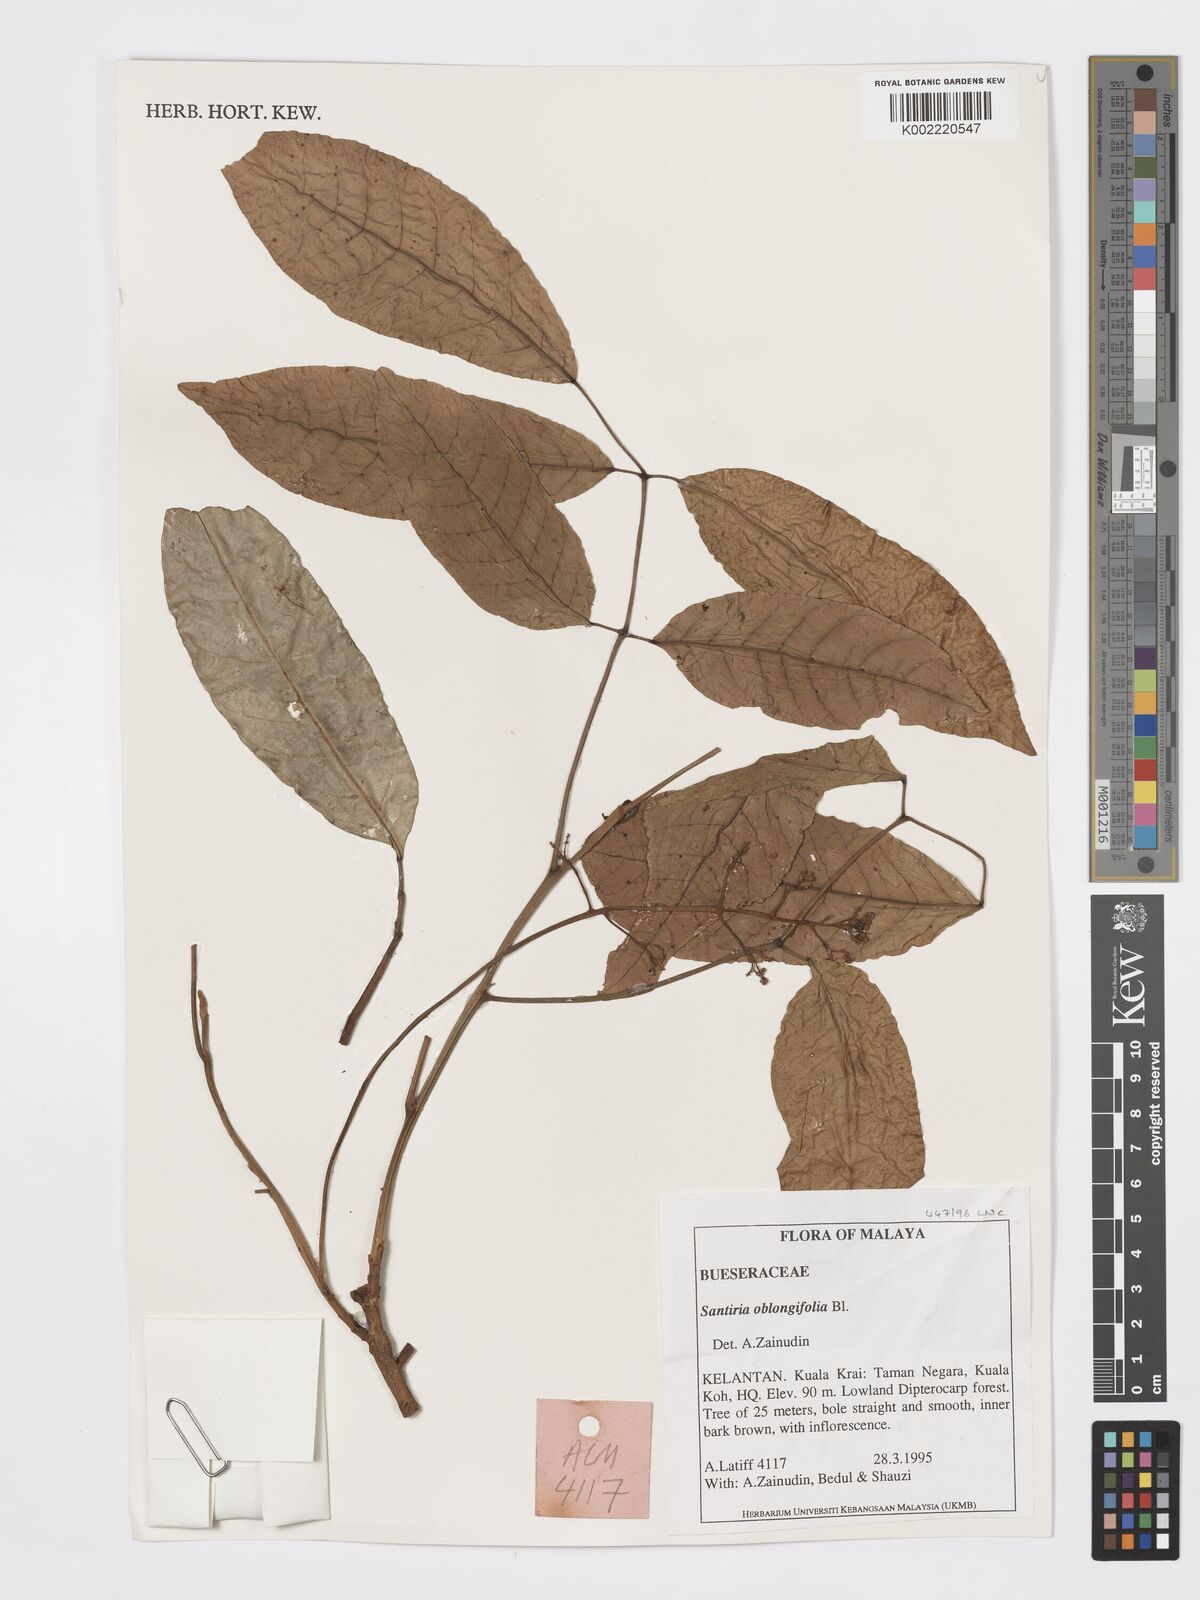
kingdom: Plantae
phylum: Tracheophyta
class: Magnoliopsida
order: Sapindales
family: Burseraceae
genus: Santiria
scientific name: Santiria oblongifolia
